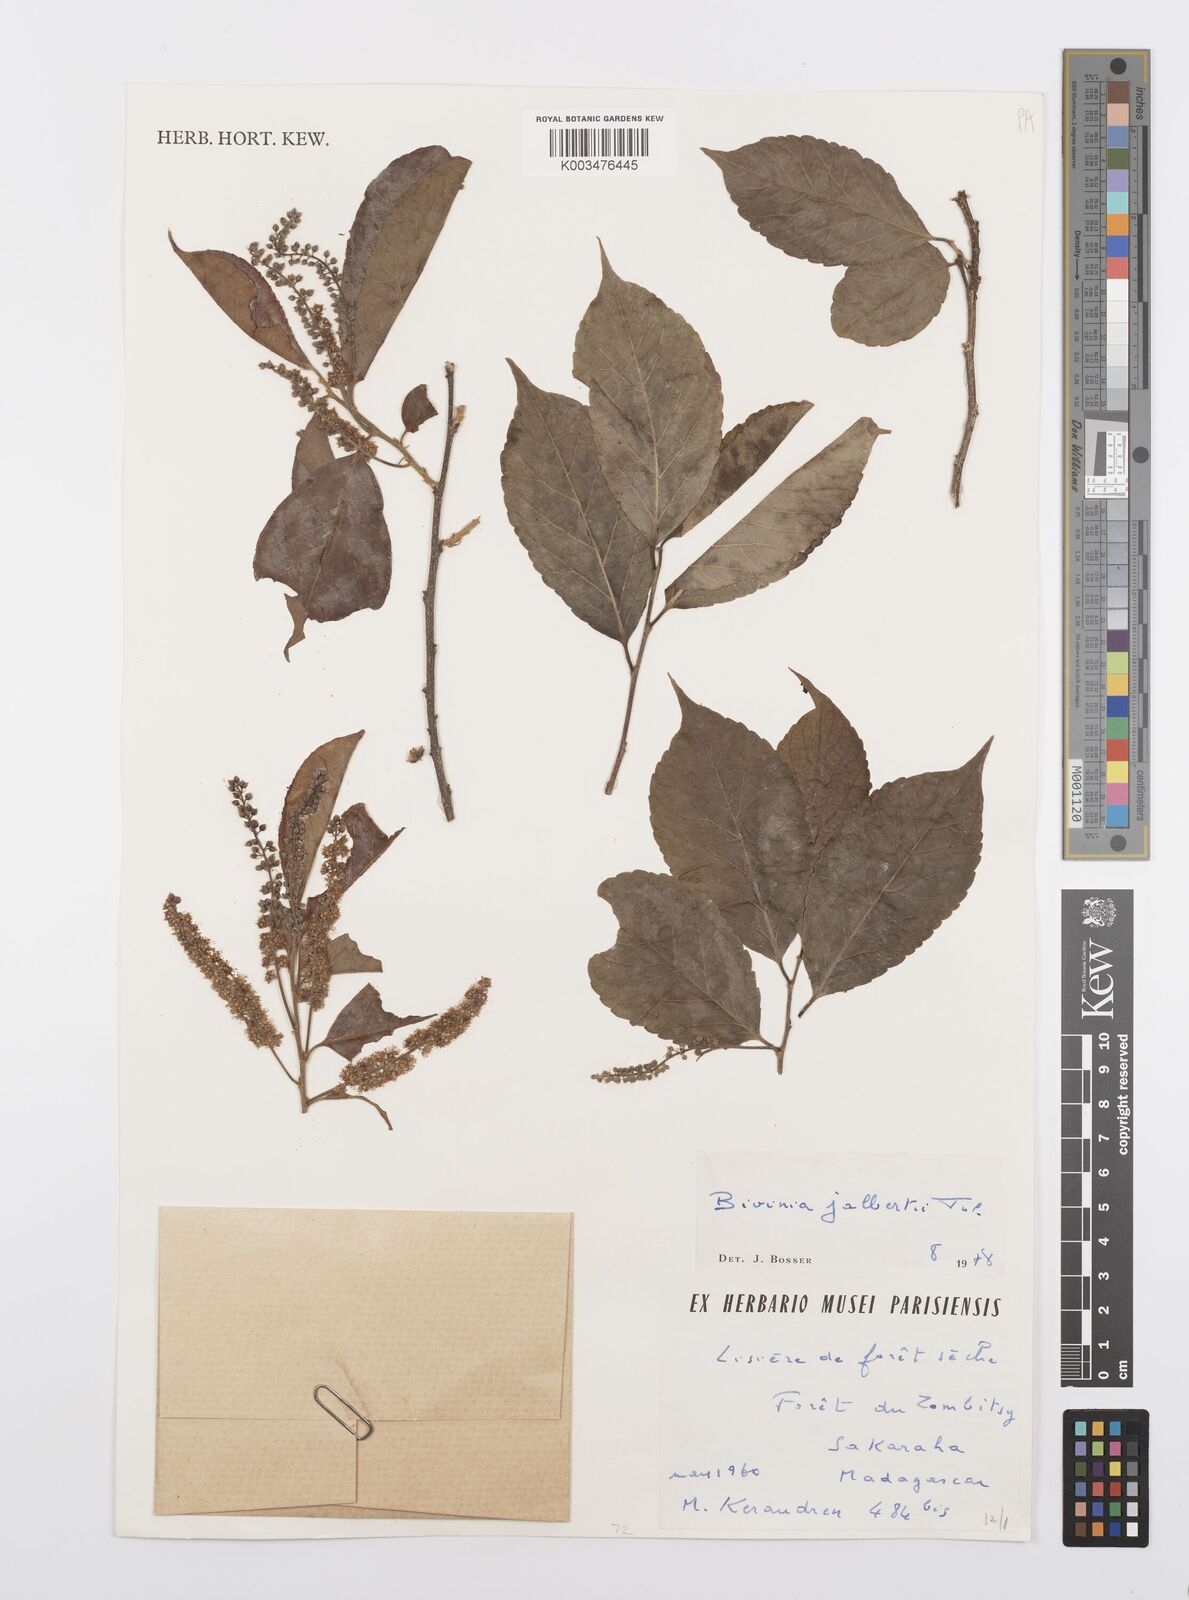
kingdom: Plantae
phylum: Tracheophyta
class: Magnoliopsida
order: Malpighiales
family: Salicaceae
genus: Bivinia
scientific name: Bivinia jalbertii
